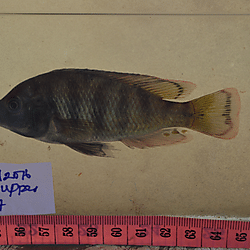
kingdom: Animalia
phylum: Chordata
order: Perciformes
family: Cichlidae
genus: Paralabidochromis
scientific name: Paralabidochromis
